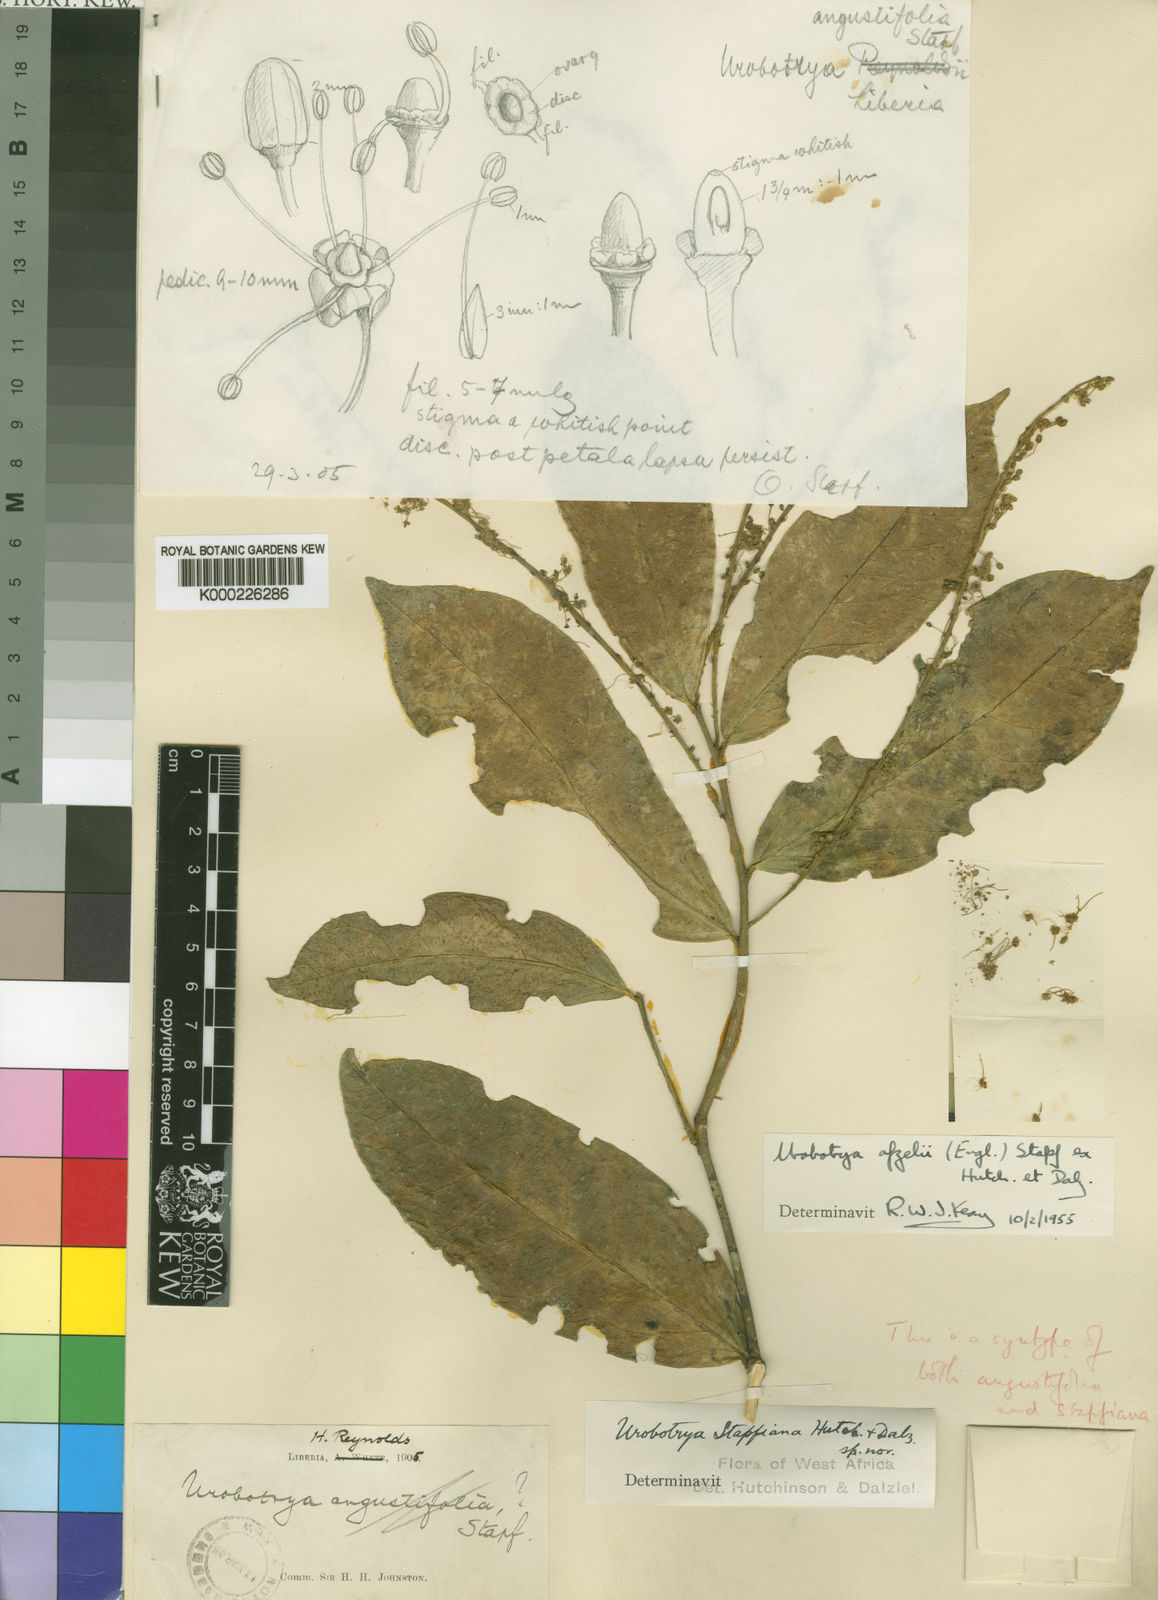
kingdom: Plantae
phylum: Tracheophyta
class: Magnoliopsida
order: Santalales
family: Opiliaceae
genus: Urobotrya
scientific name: Urobotrya congolana
